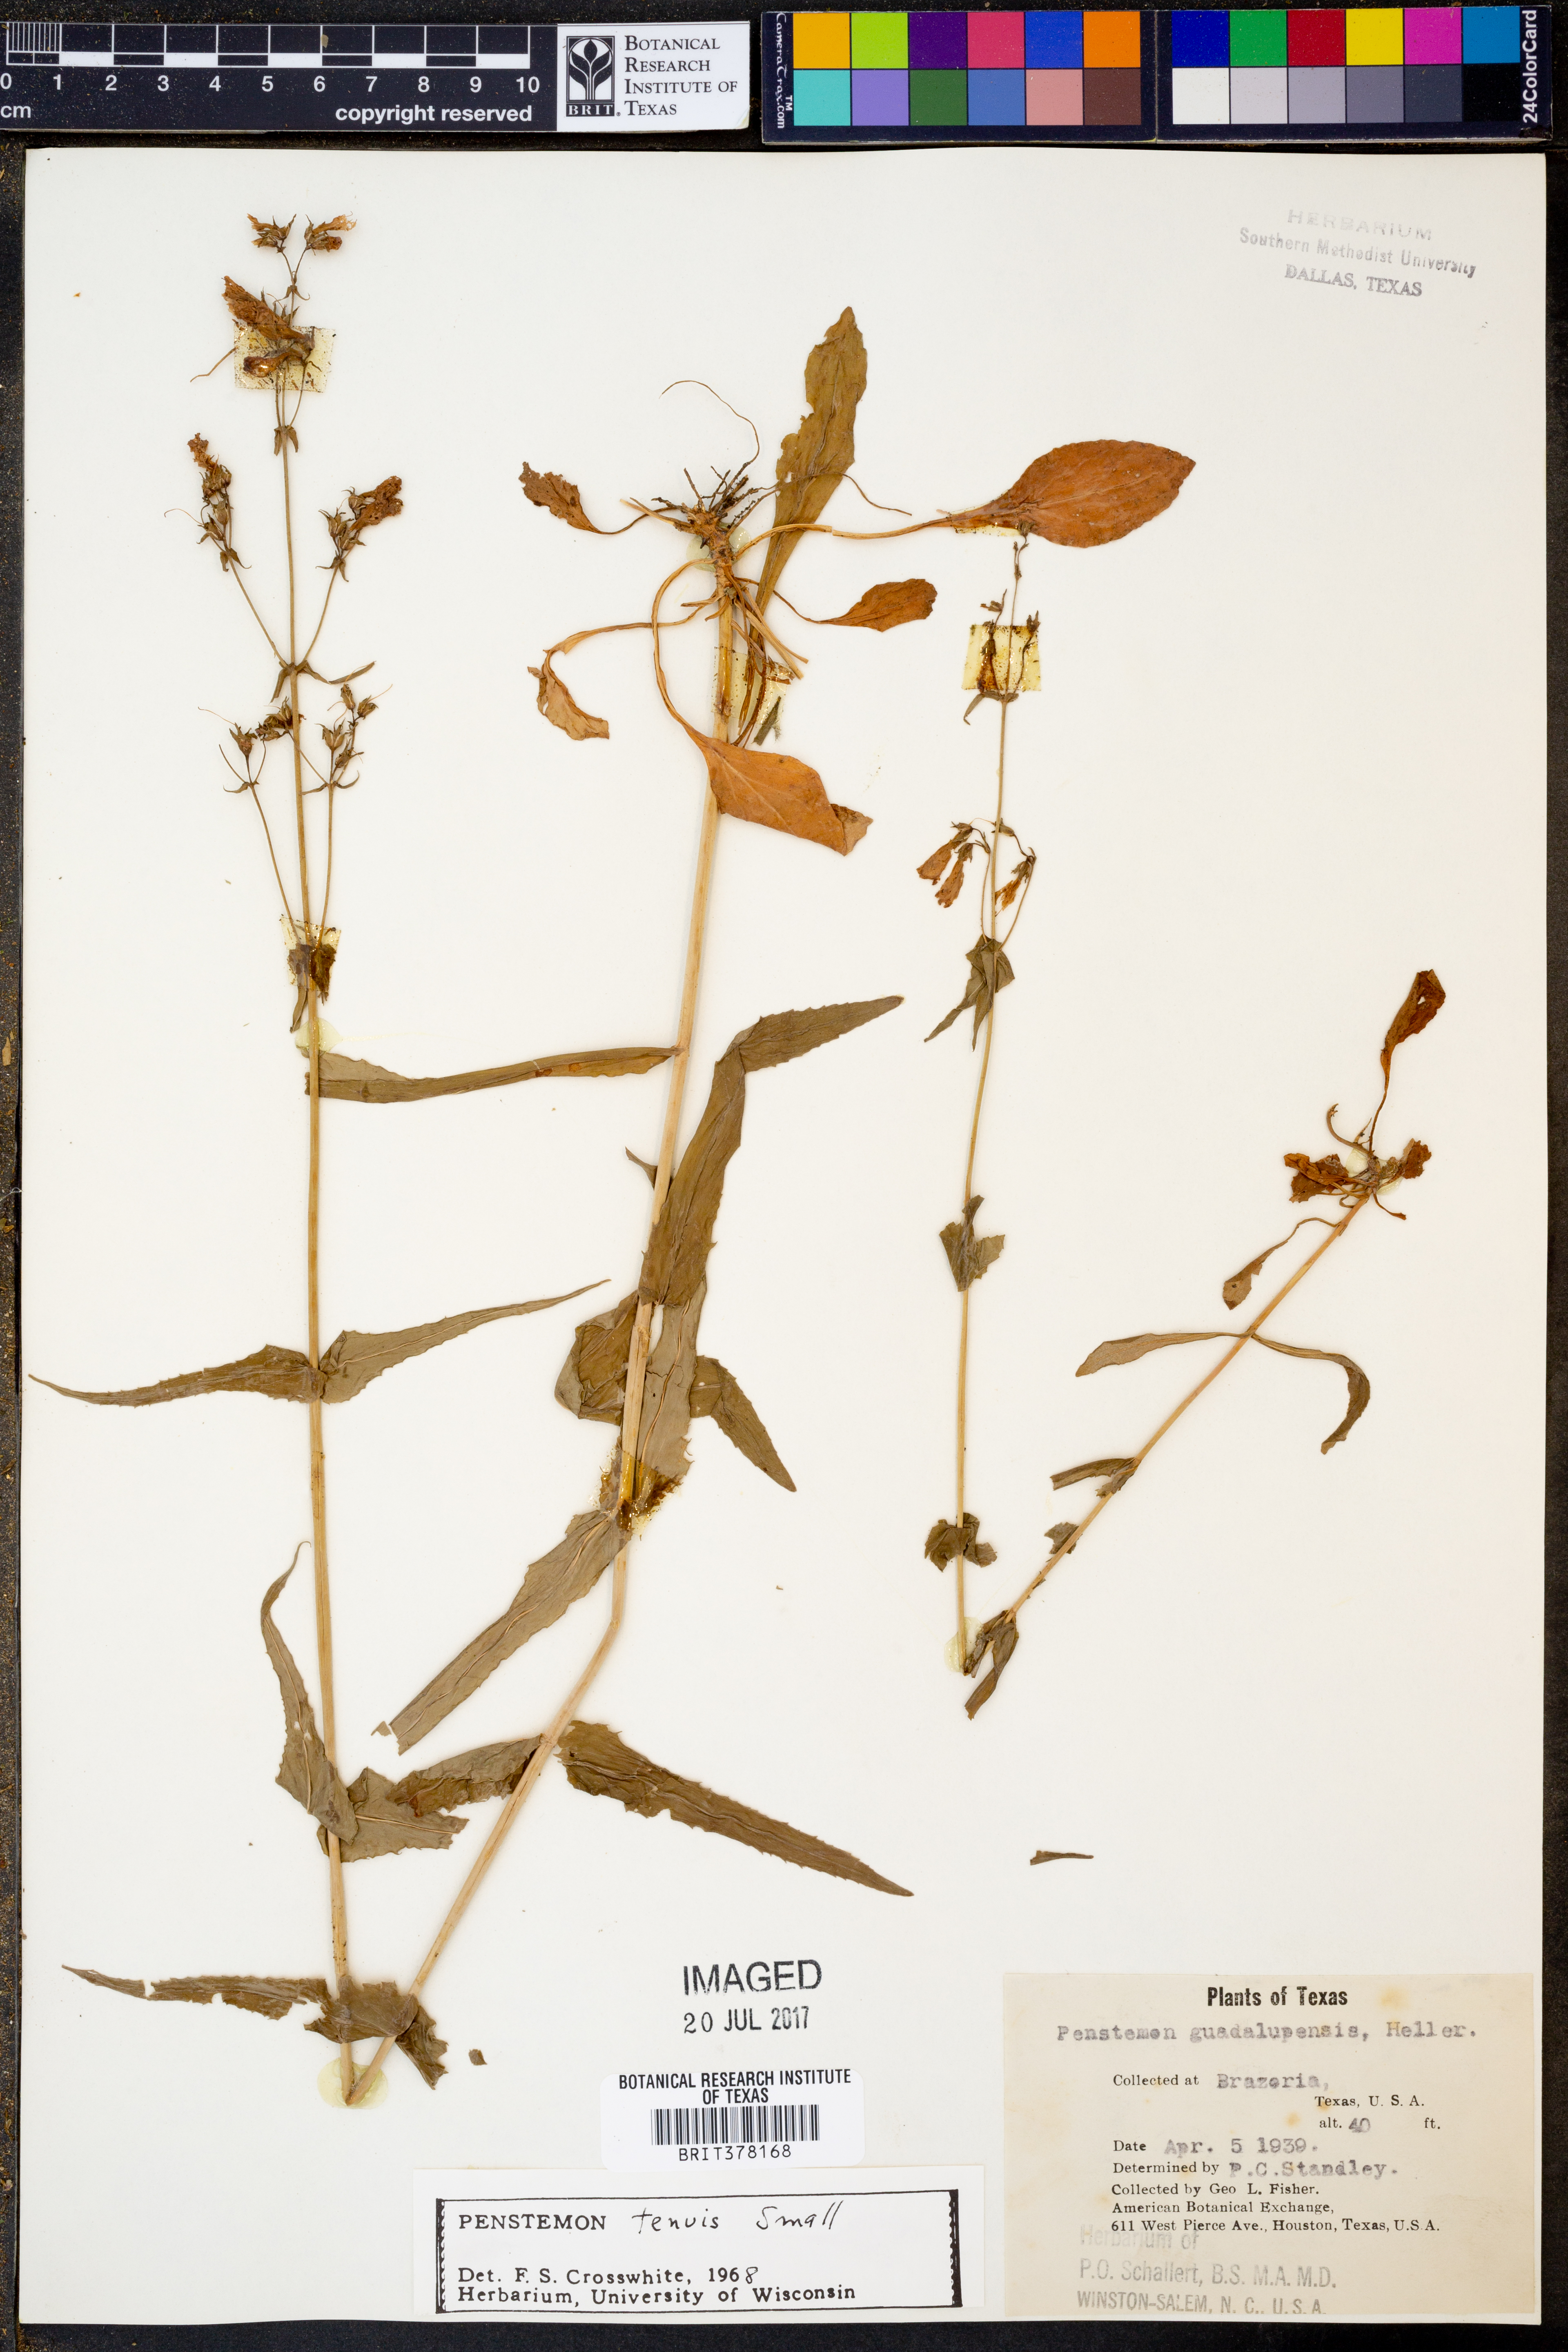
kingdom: Plantae
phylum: Tracheophyta
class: Magnoliopsida
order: Lamiales
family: Plantaginaceae
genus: Penstemon
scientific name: Penstemon tenuis
